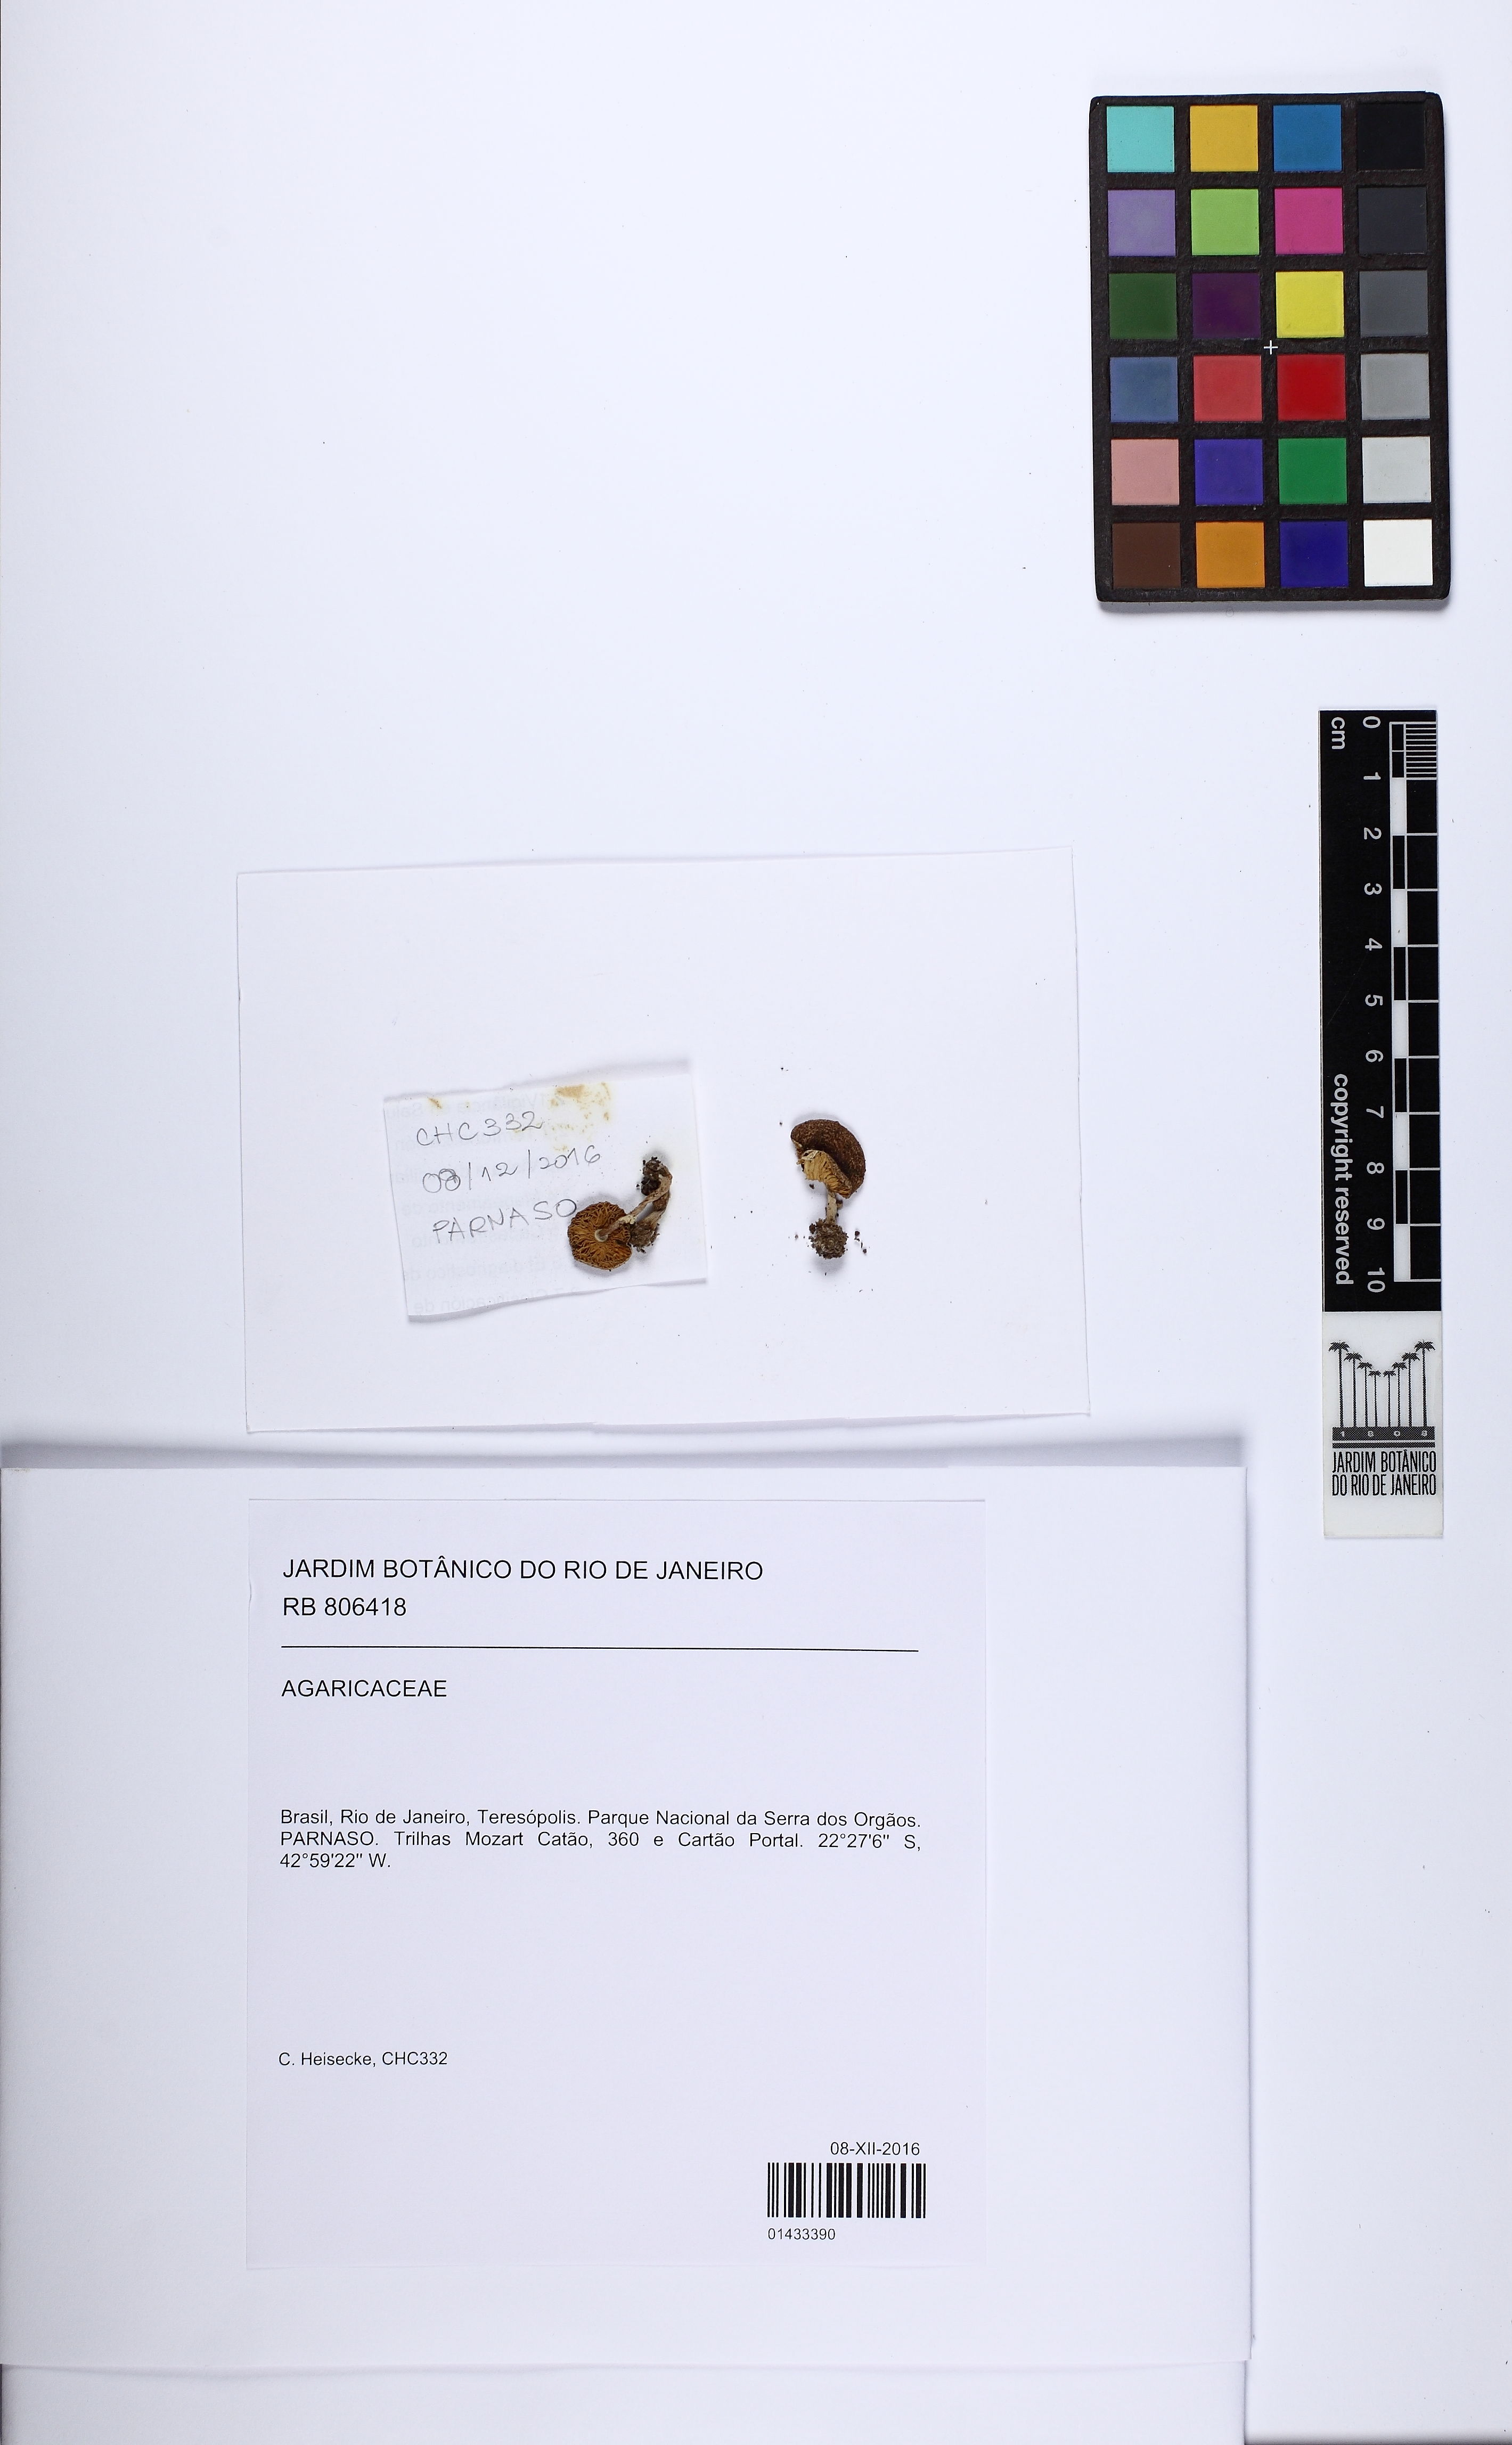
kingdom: Fungi
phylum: Basidiomycota
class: Agaricomycetes
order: Agaricales
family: Agaricaceae
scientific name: Agaricaceae
